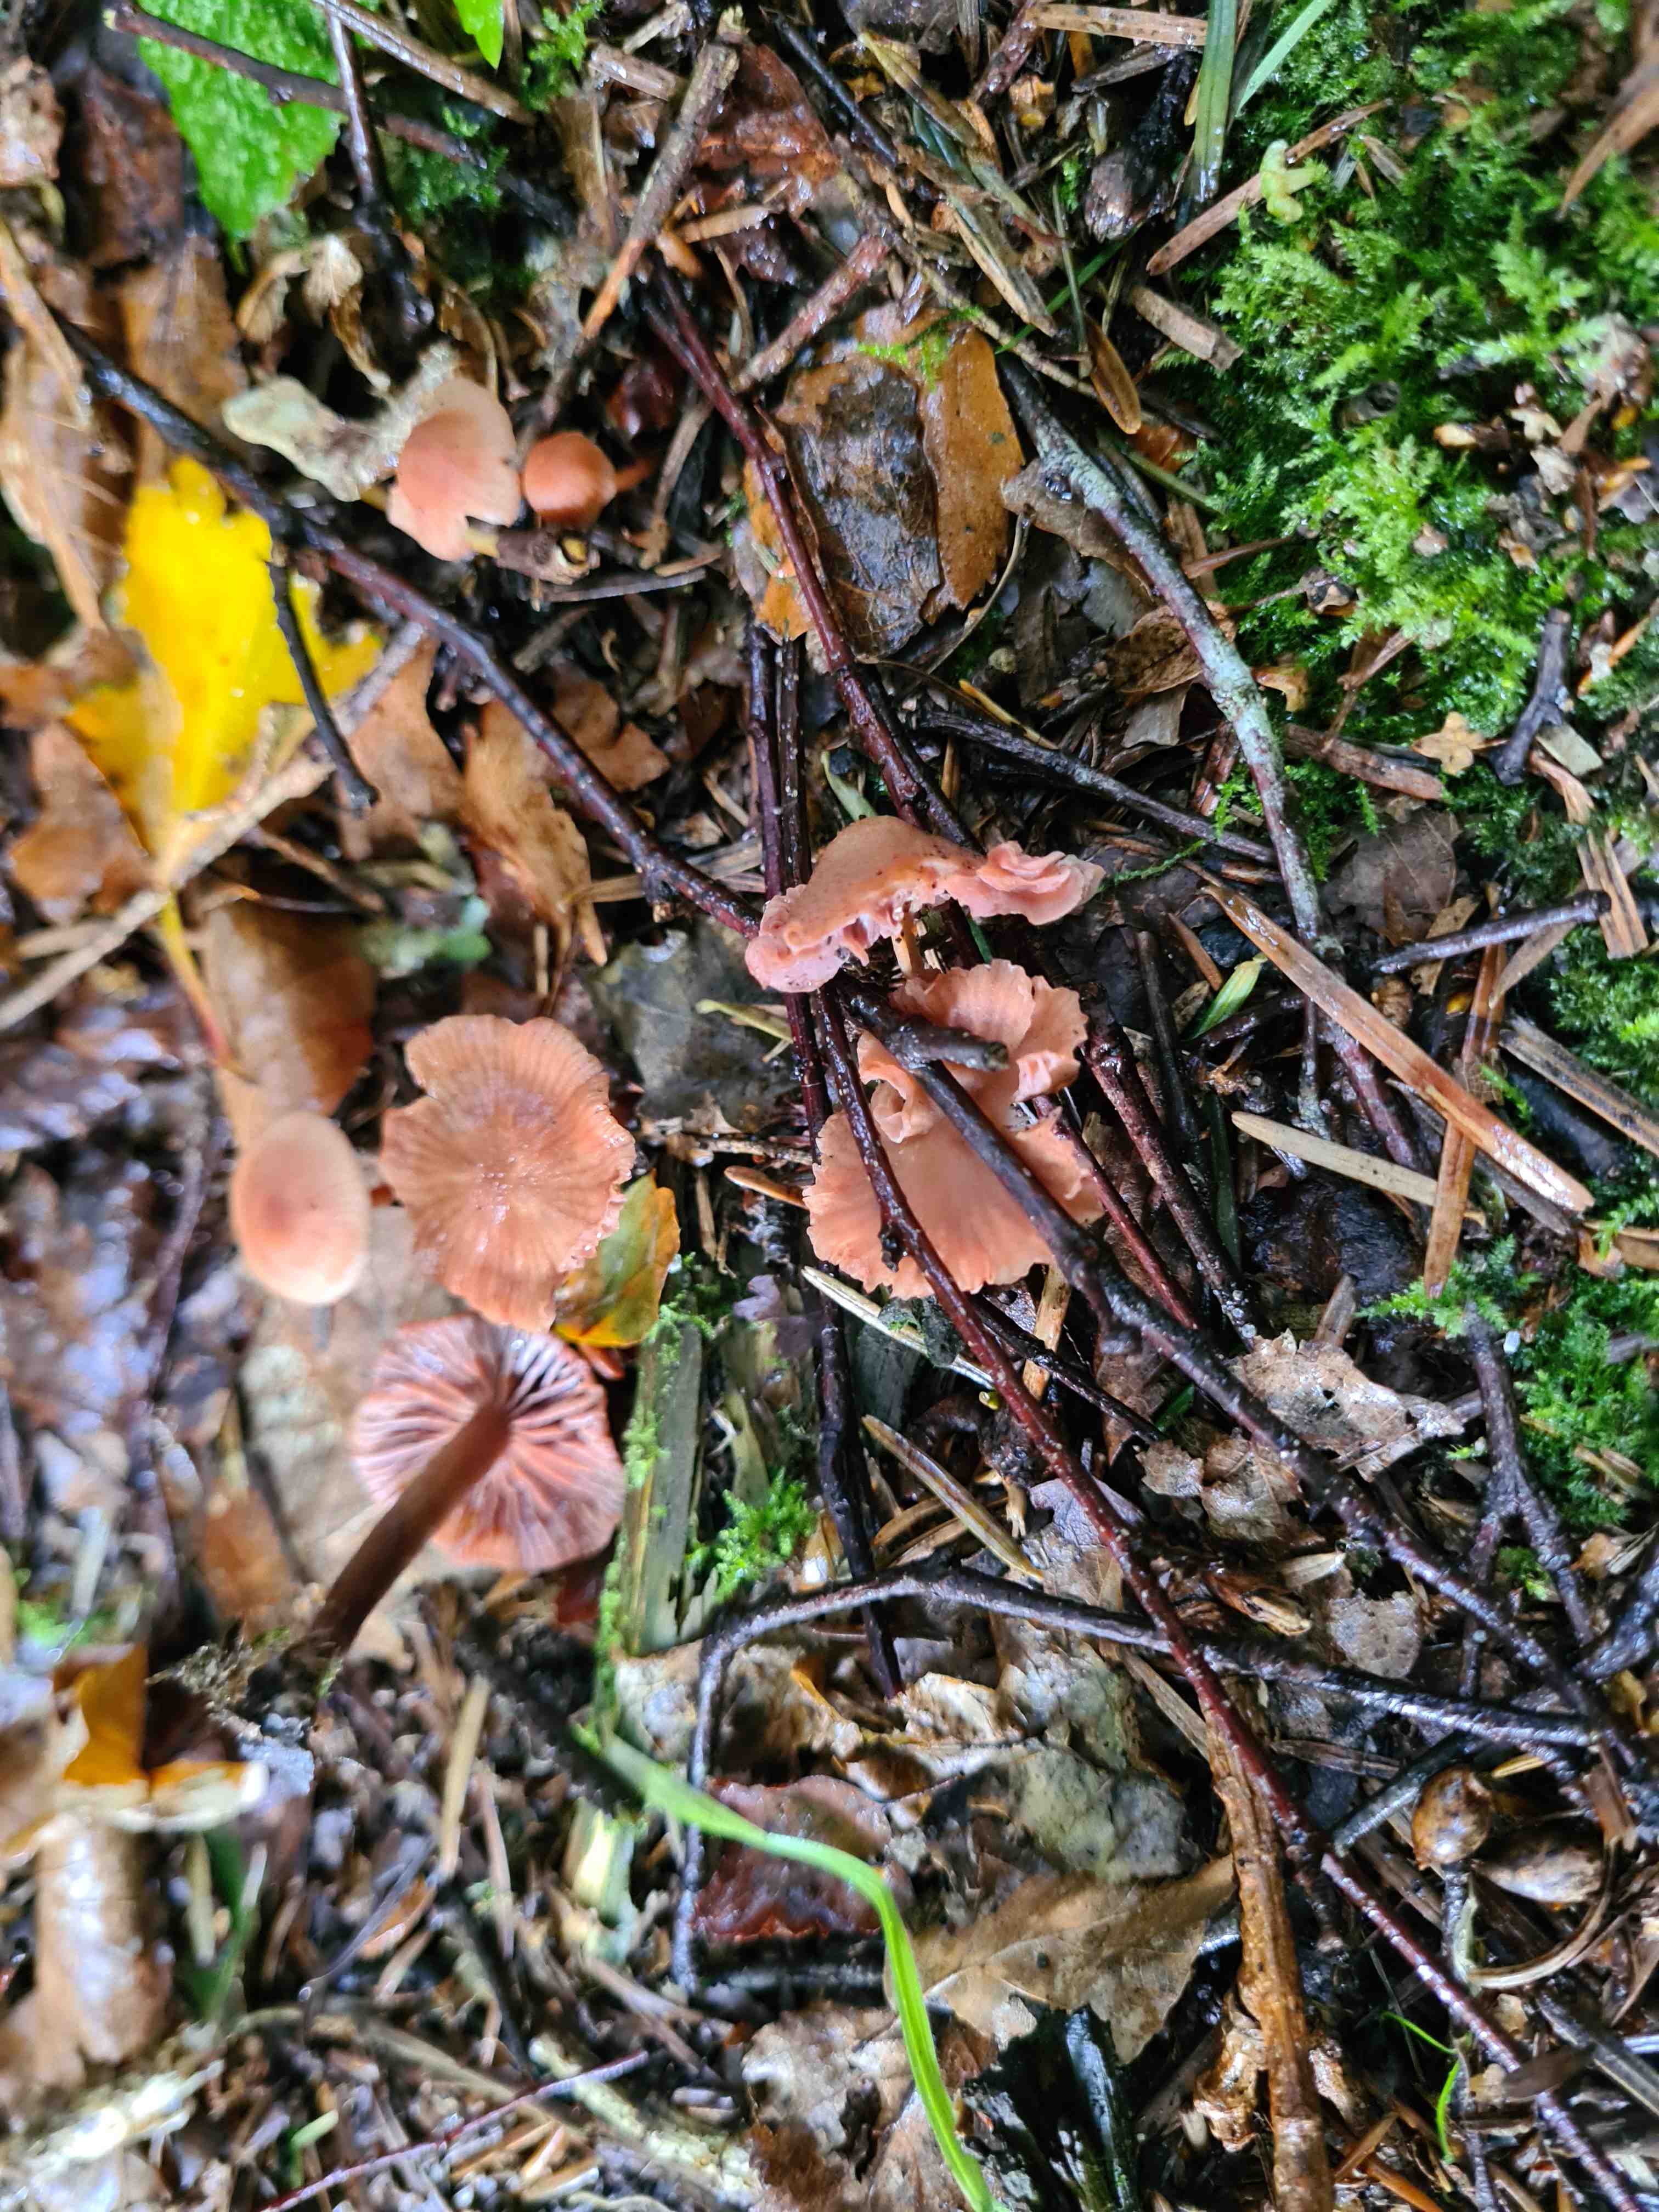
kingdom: Fungi
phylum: Basidiomycota
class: Agaricomycetes
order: Agaricales
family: Hydnangiaceae
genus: Laccaria
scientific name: Laccaria laccata
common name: rød ametysthat
